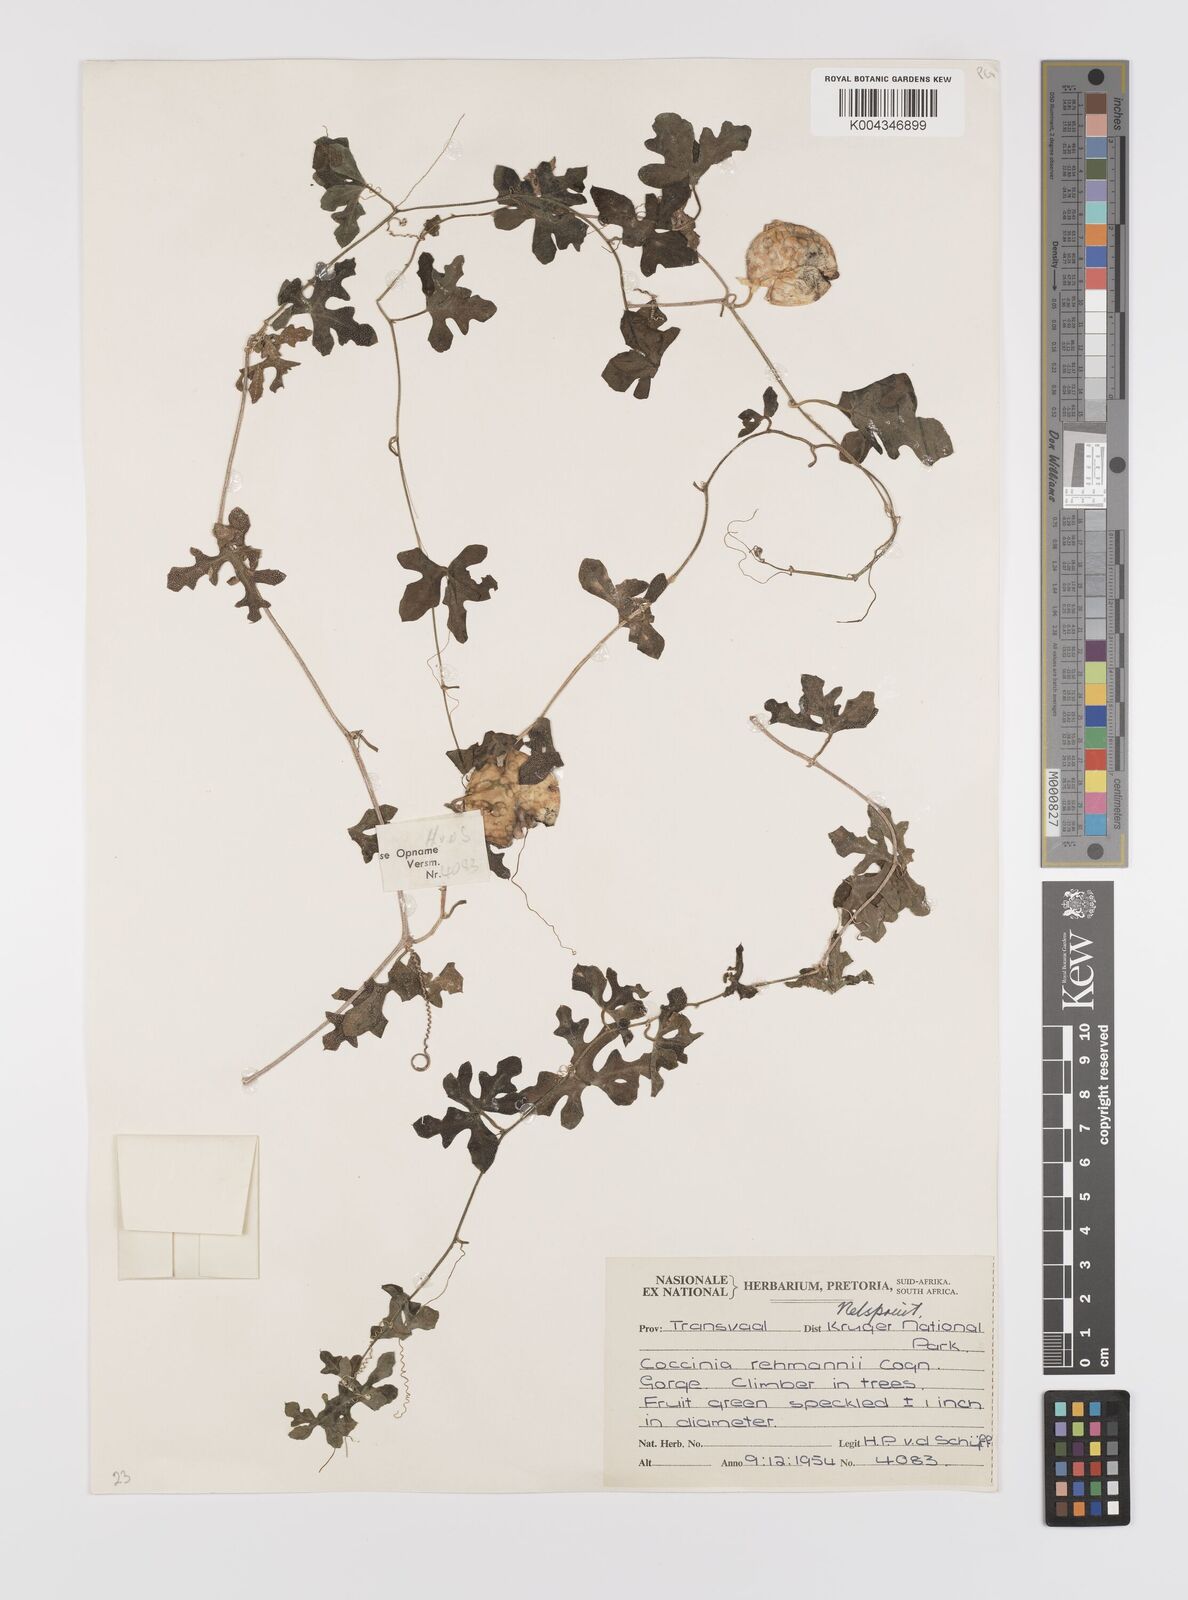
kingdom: Plantae
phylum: Tracheophyta
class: Magnoliopsida
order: Cucurbitales
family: Cucurbitaceae
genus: Coccinia
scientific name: Coccinia rehmannii
